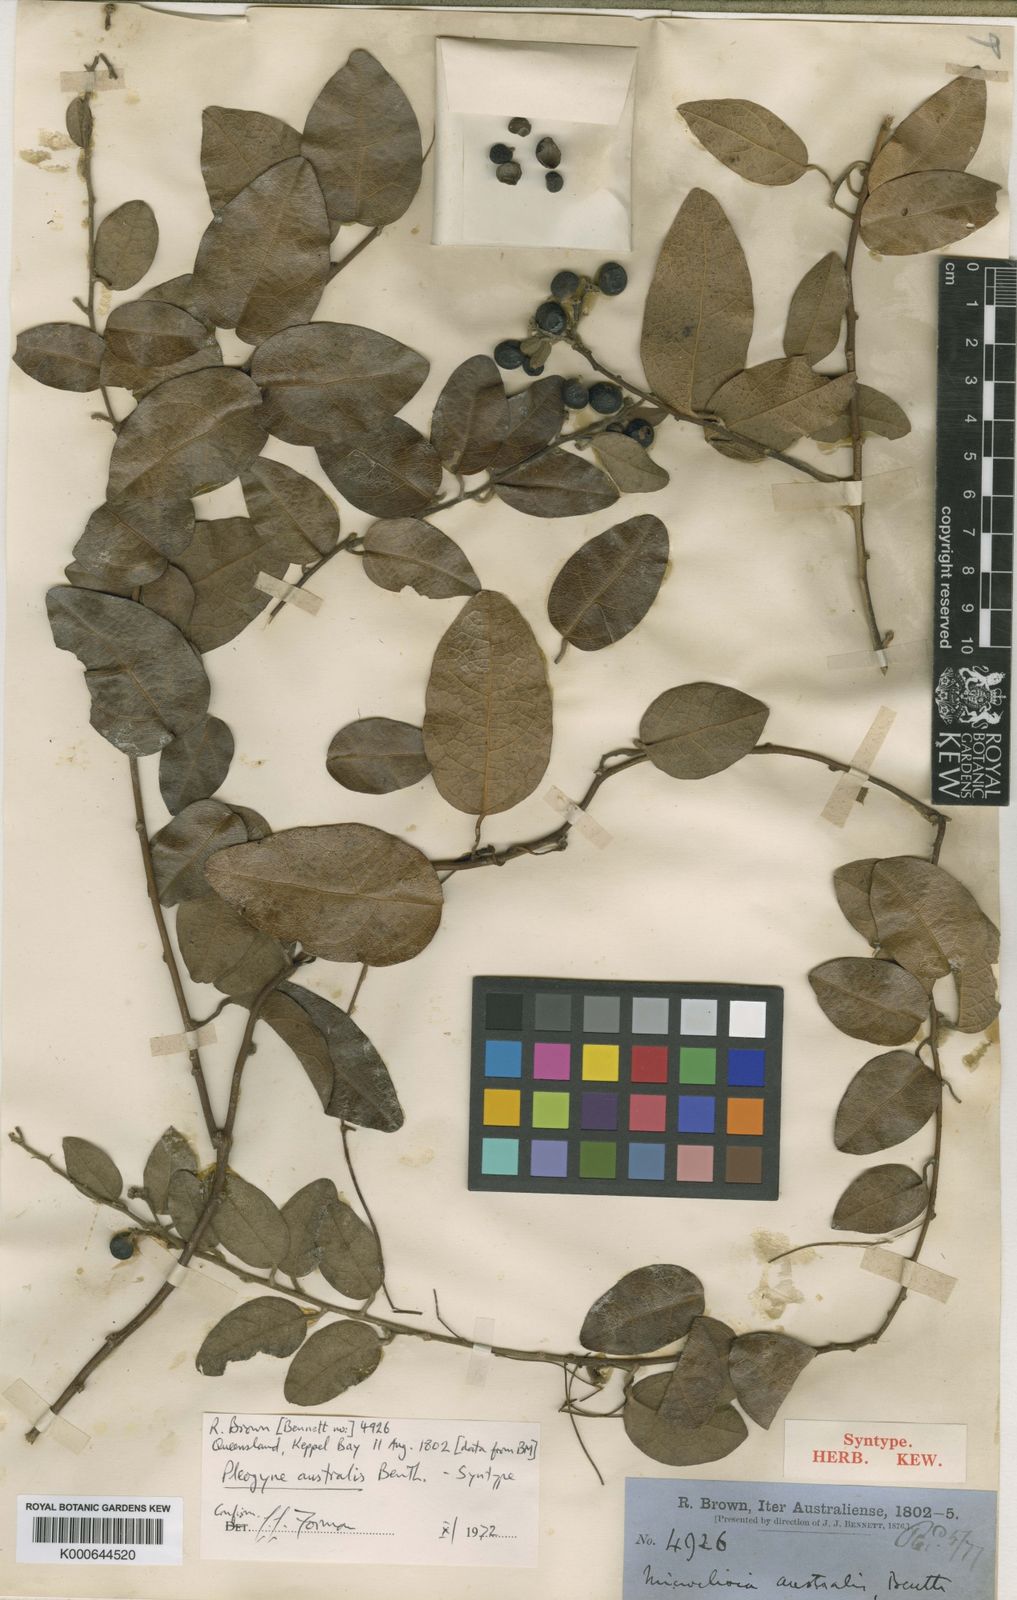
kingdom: Plantae
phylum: Tracheophyta
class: Magnoliopsida
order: Ranunculales
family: Menispermaceae
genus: Pleogyne
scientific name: Pleogyne australis
